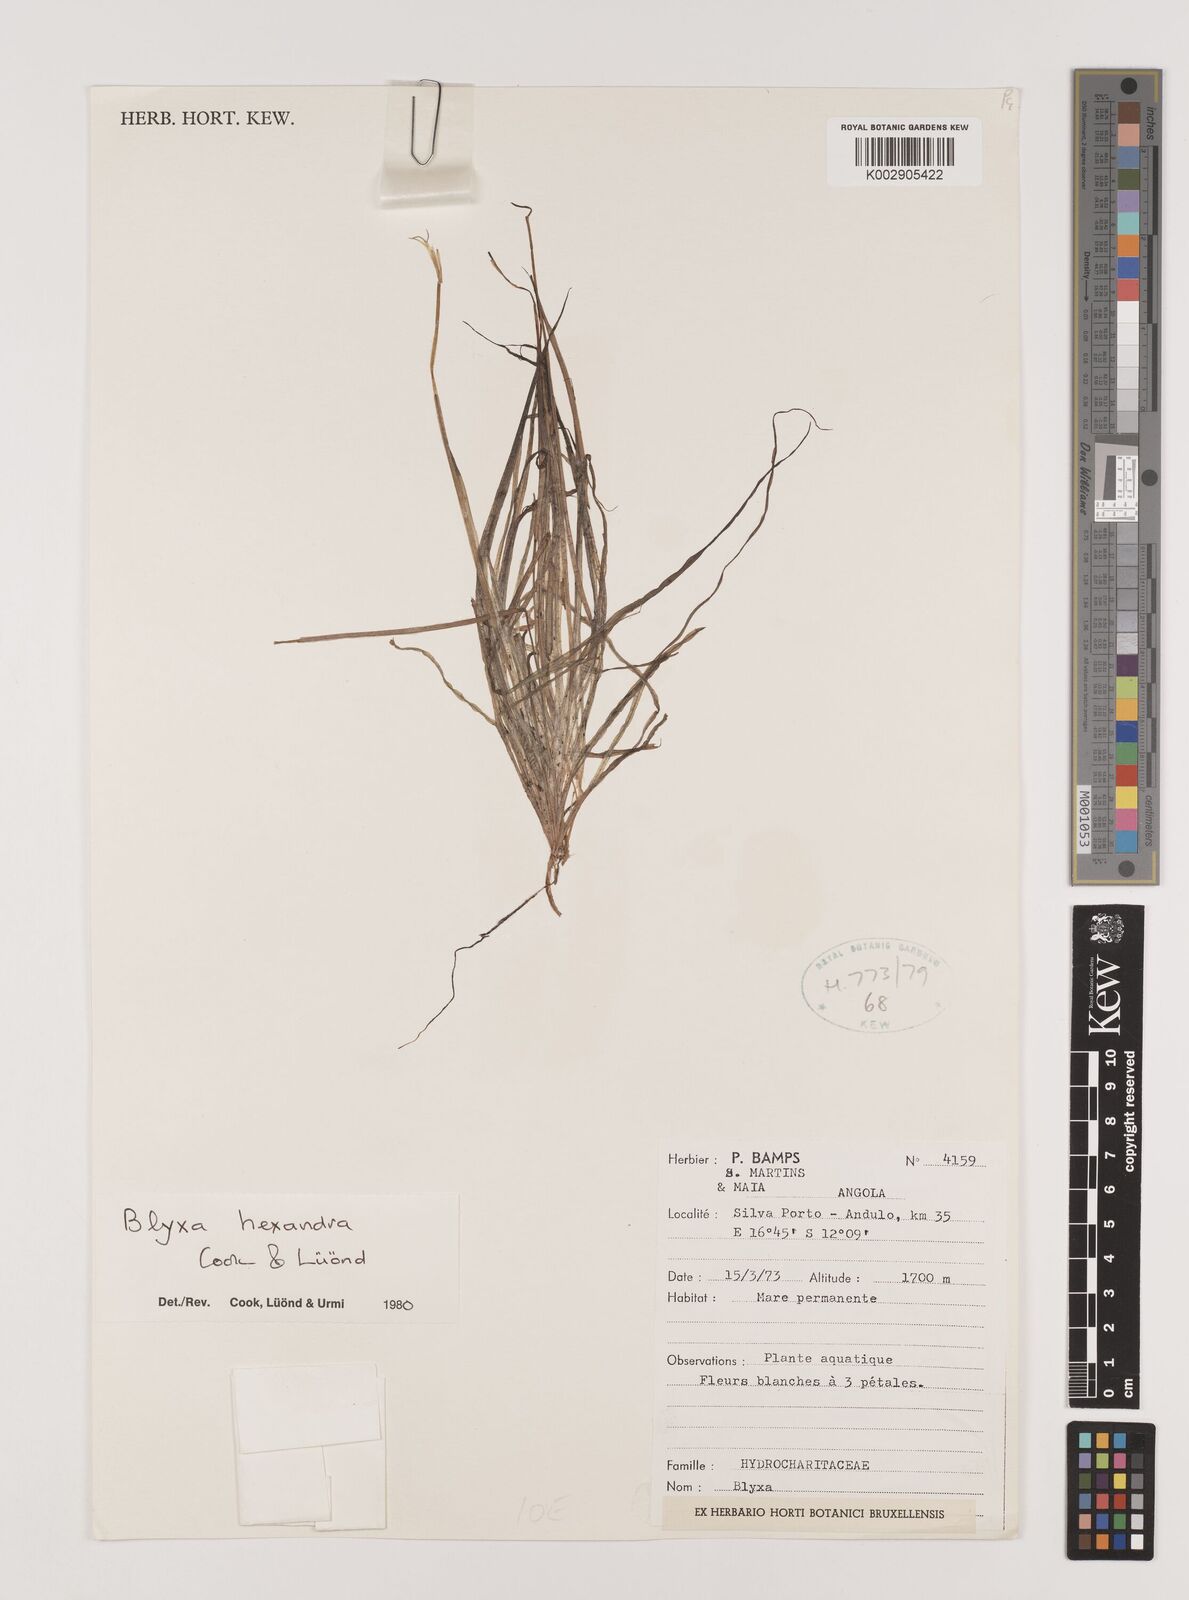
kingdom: Plantae
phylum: Tracheophyta
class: Liliopsida
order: Alismatales
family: Hydrocharitaceae
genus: Blyxa
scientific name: Blyxa hexandra
